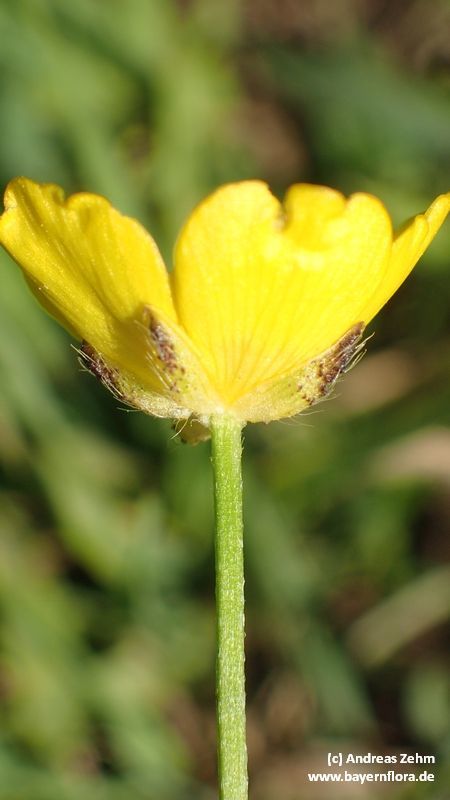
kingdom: Plantae
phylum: Tracheophyta
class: Magnoliopsida
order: Ranunculales
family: Ranunculaceae
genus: Ranunculus
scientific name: Ranunculus polyanthemos
